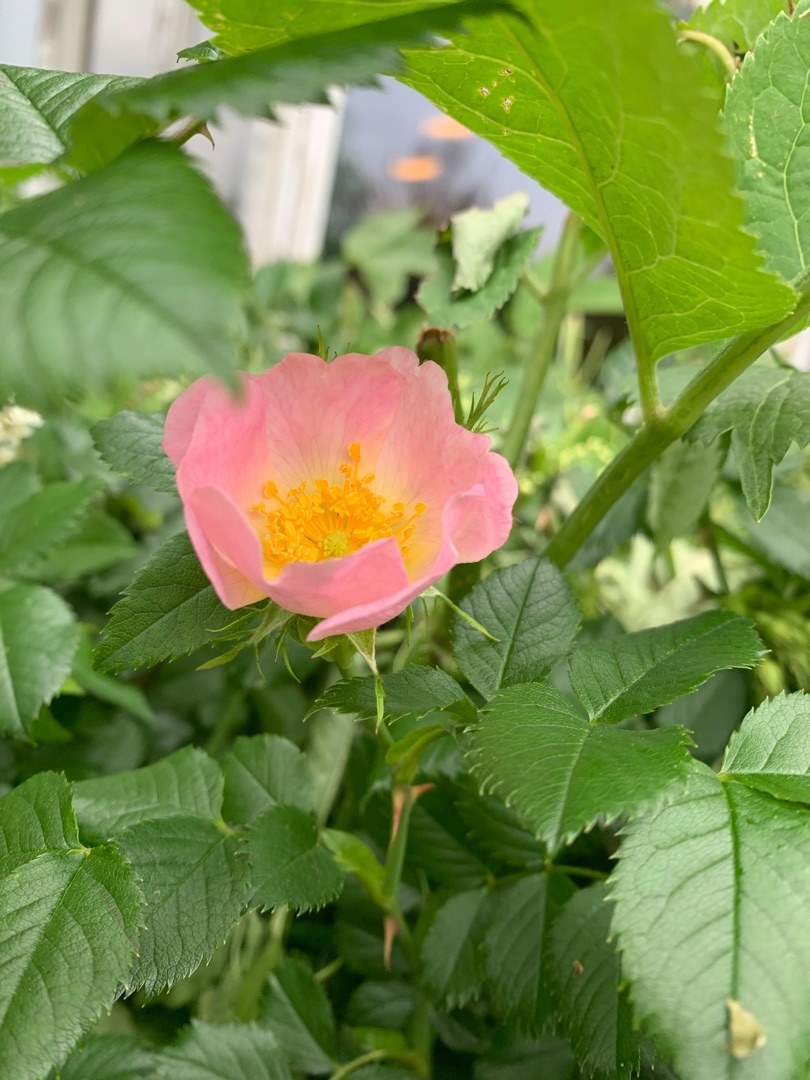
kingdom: Plantae
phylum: Tracheophyta
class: Magnoliopsida
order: Rosales
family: Rosaceae
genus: Rosa
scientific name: Rosa canina
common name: Glat hunde-rose
